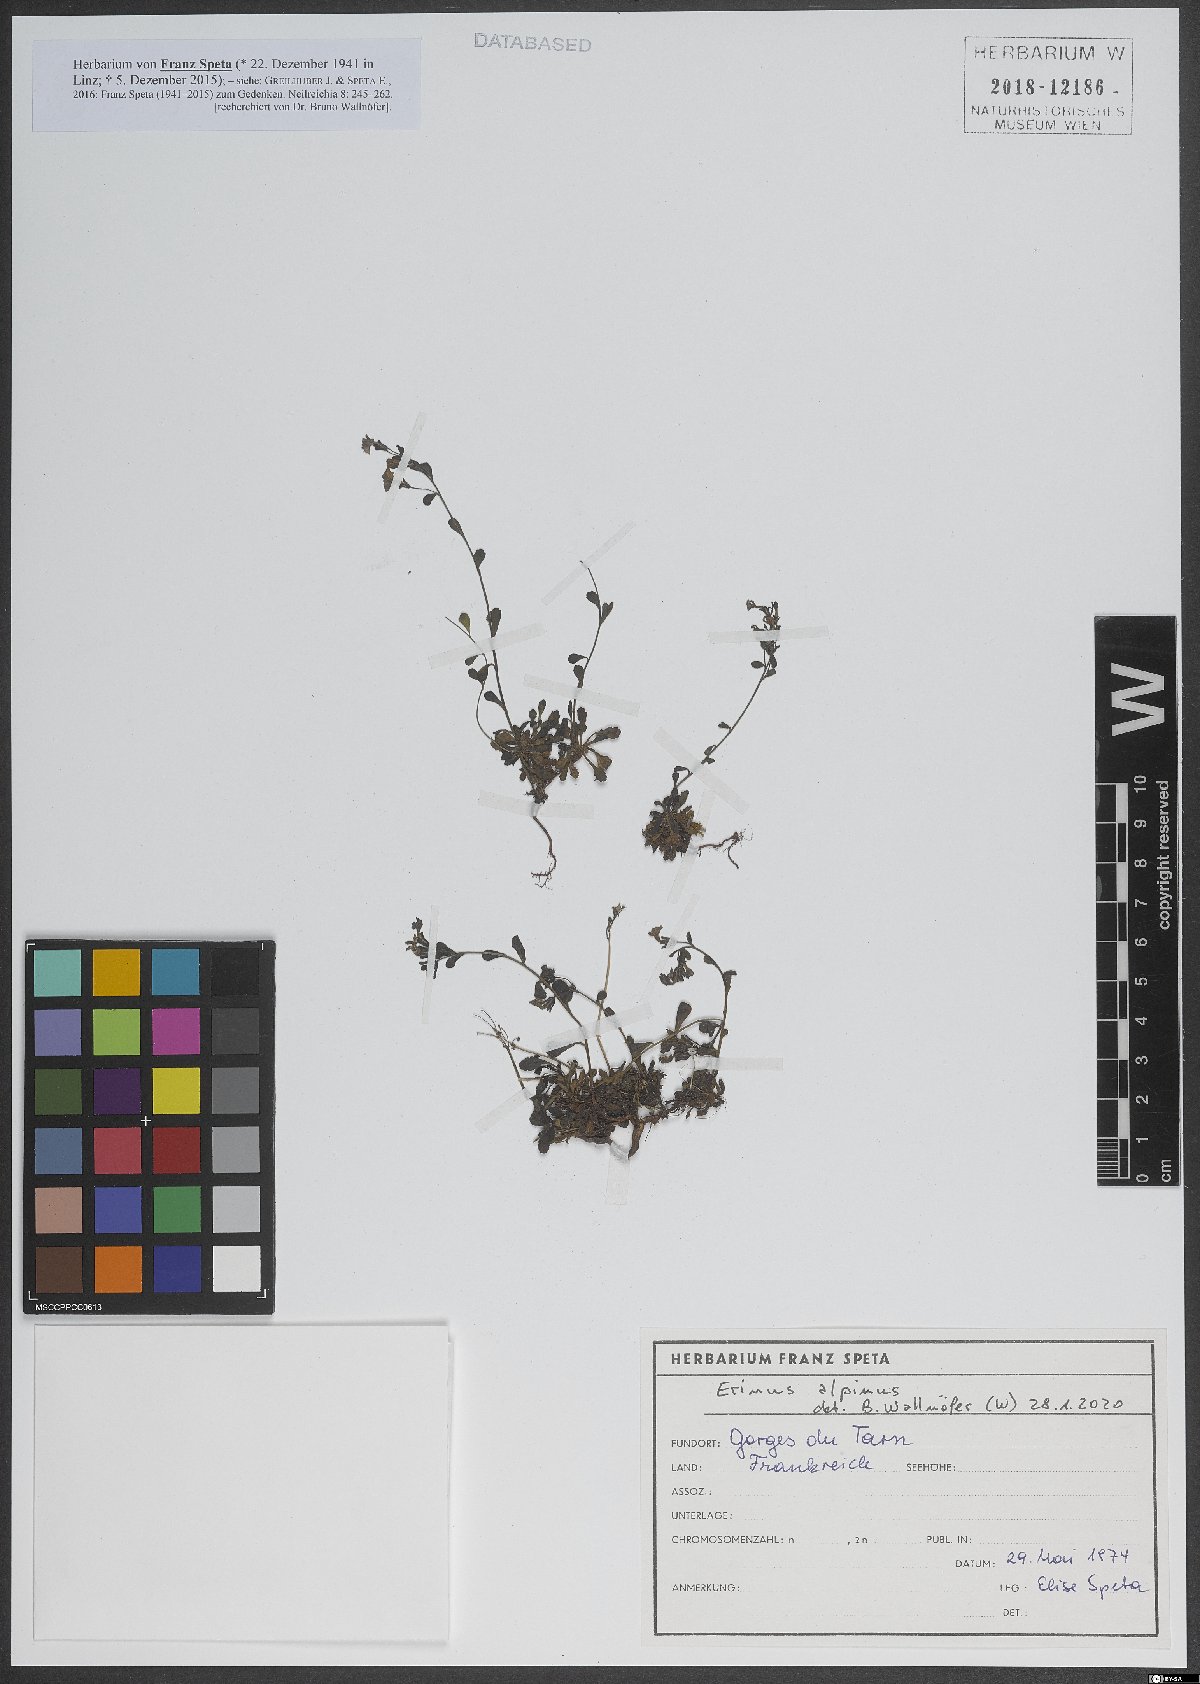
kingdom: Plantae
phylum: Tracheophyta
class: Magnoliopsida
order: Lamiales
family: Plantaginaceae
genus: Erinus
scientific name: Erinus alpinus
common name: Fairy foxglove
